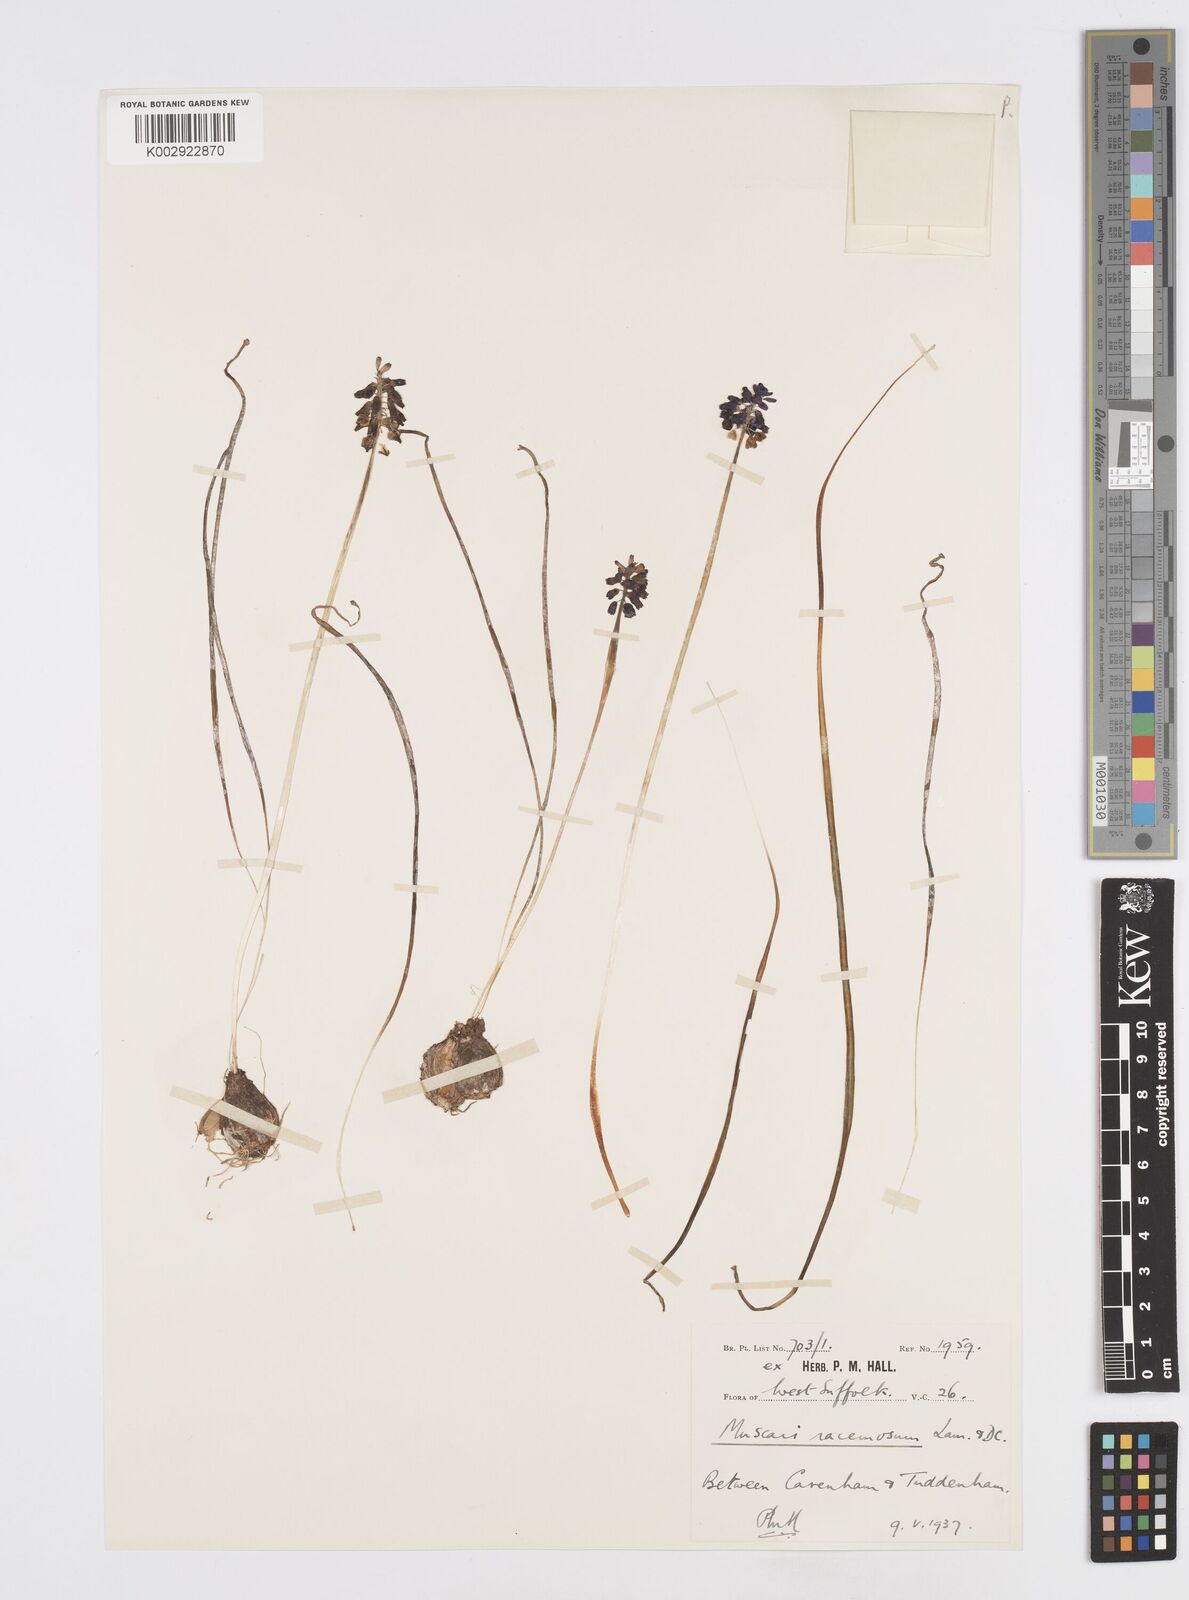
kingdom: Plantae
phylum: Tracheophyta
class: Liliopsida
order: Asparagales
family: Asparagaceae
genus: Muscari
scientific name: Muscari neglectum
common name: Grape-hyacinth
